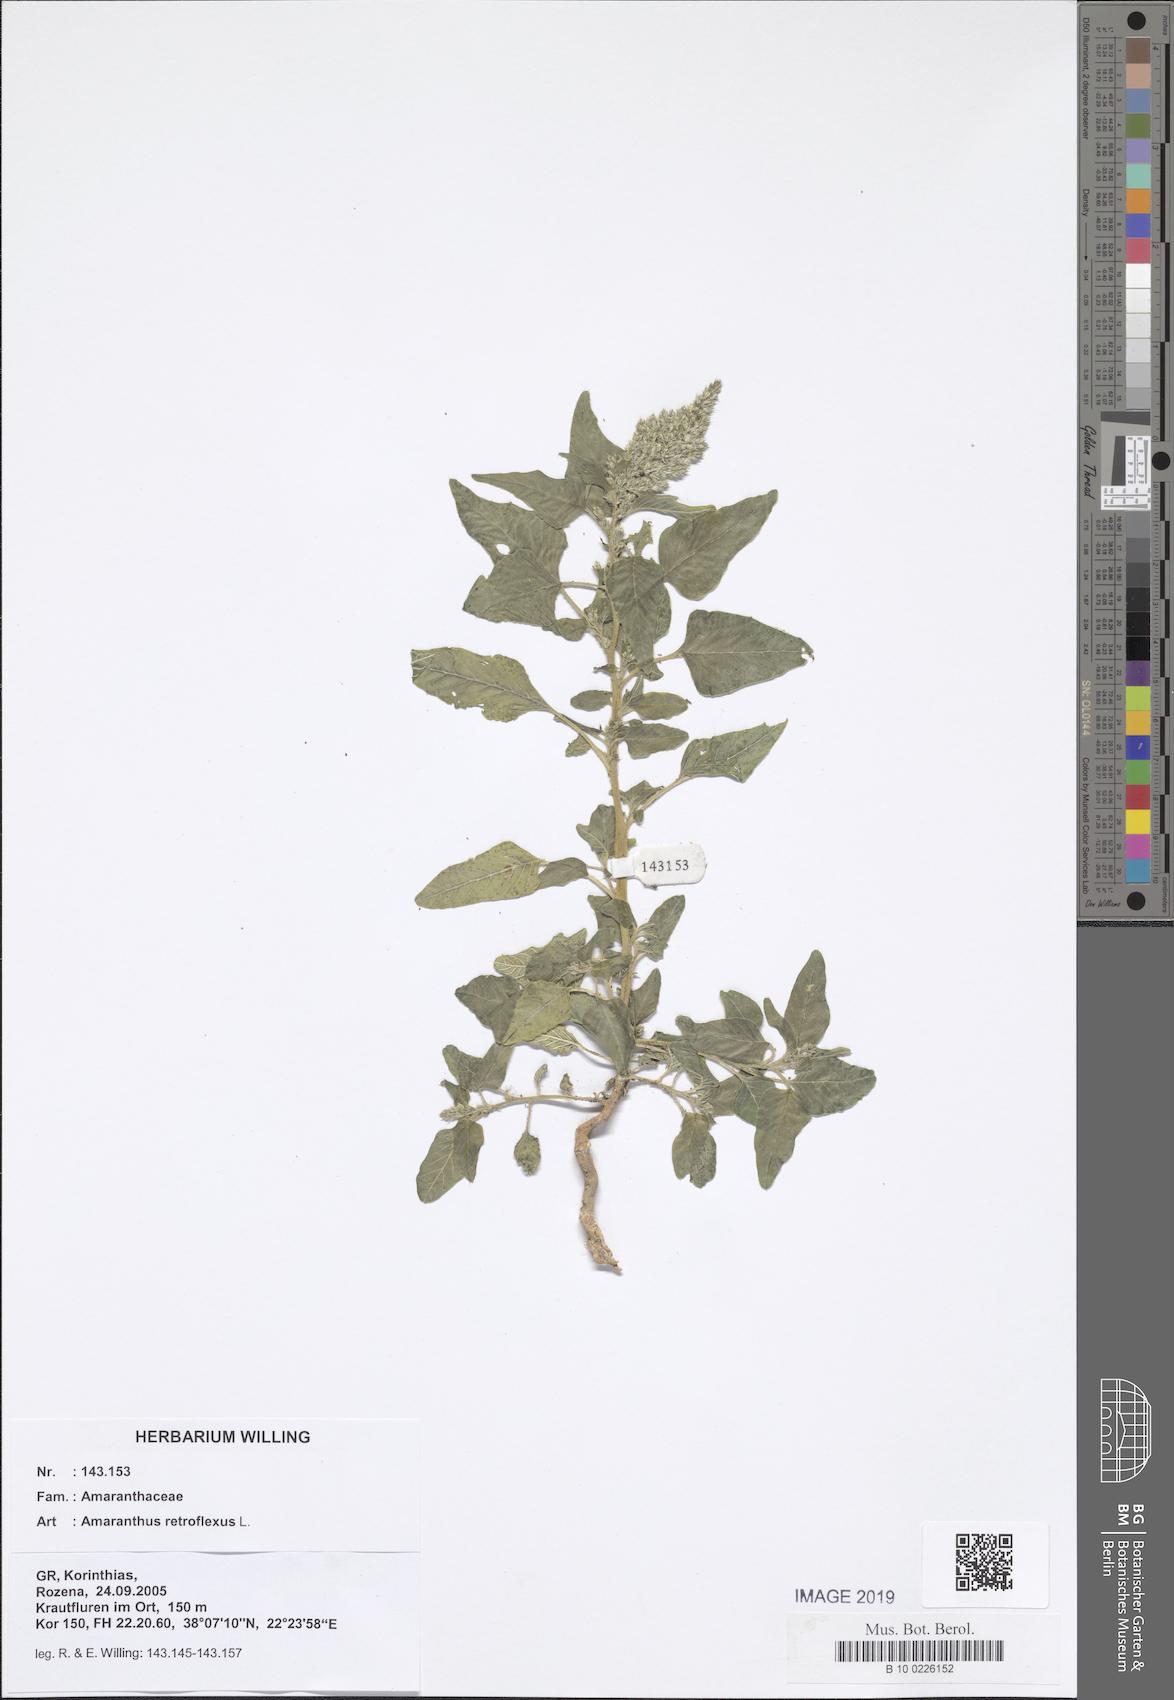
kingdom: Plantae
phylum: Tracheophyta
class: Magnoliopsida
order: Caryophyllales
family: Amaranthaceae
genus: Amaranthus
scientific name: Amaranthus retroflexus
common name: Redroot amaranth
